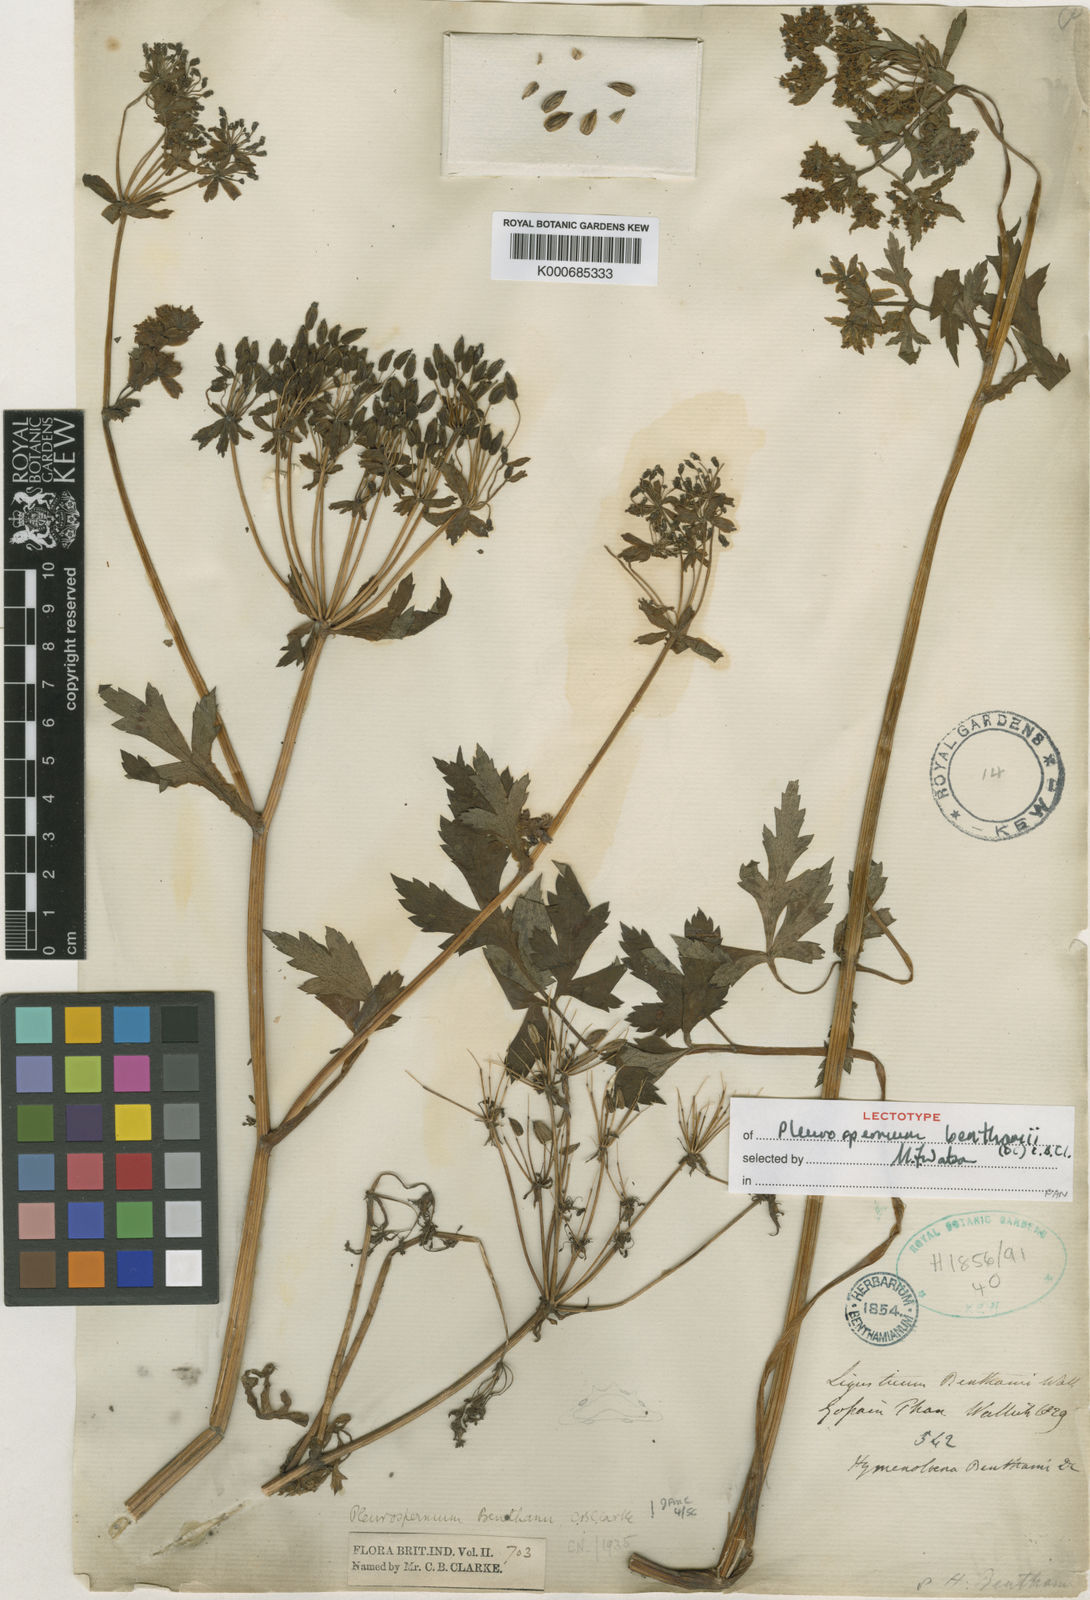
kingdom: Plantae
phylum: Tracheophyta
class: Magnoliopsida
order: Apiales
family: Apiaceae
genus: Hymenidium
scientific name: Hymenidium benthamii
